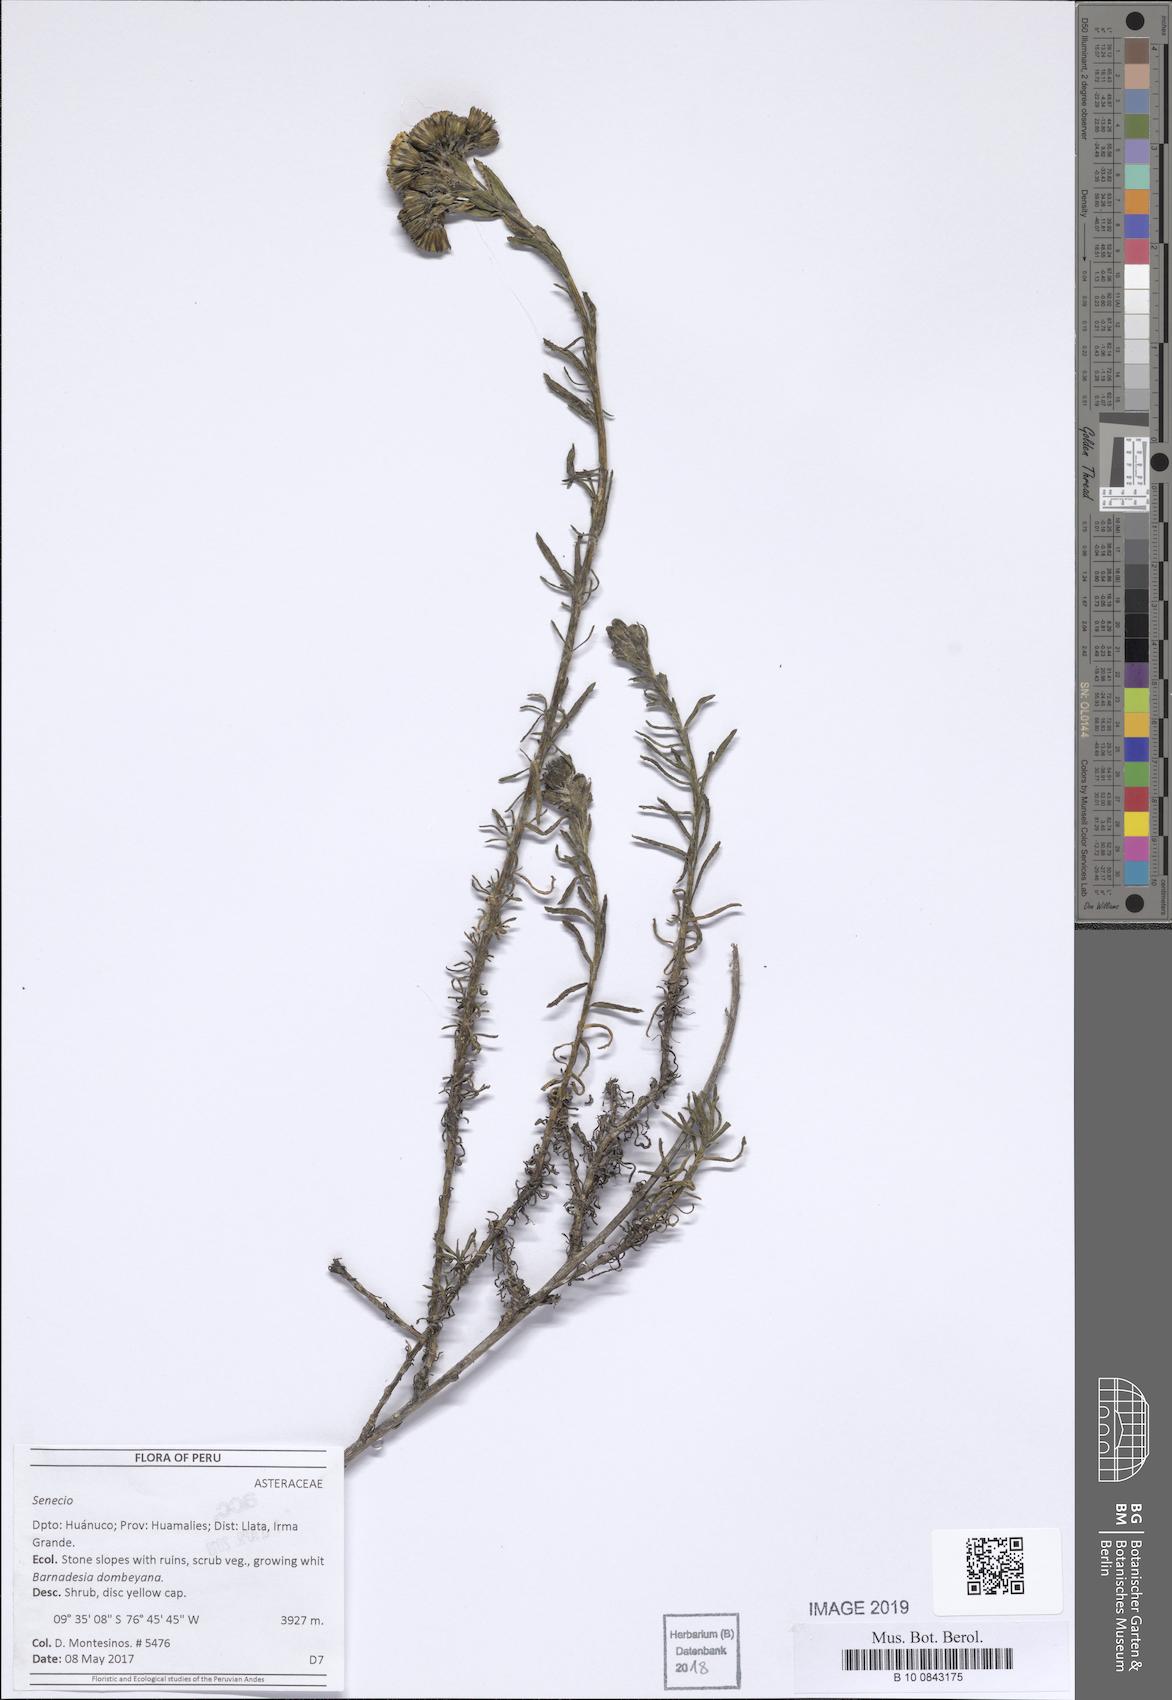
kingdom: Plantae
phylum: Tracheophyta
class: Magnoliopsida
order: Asterales
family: Asteraceae
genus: Senecio
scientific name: Senecio collinus
